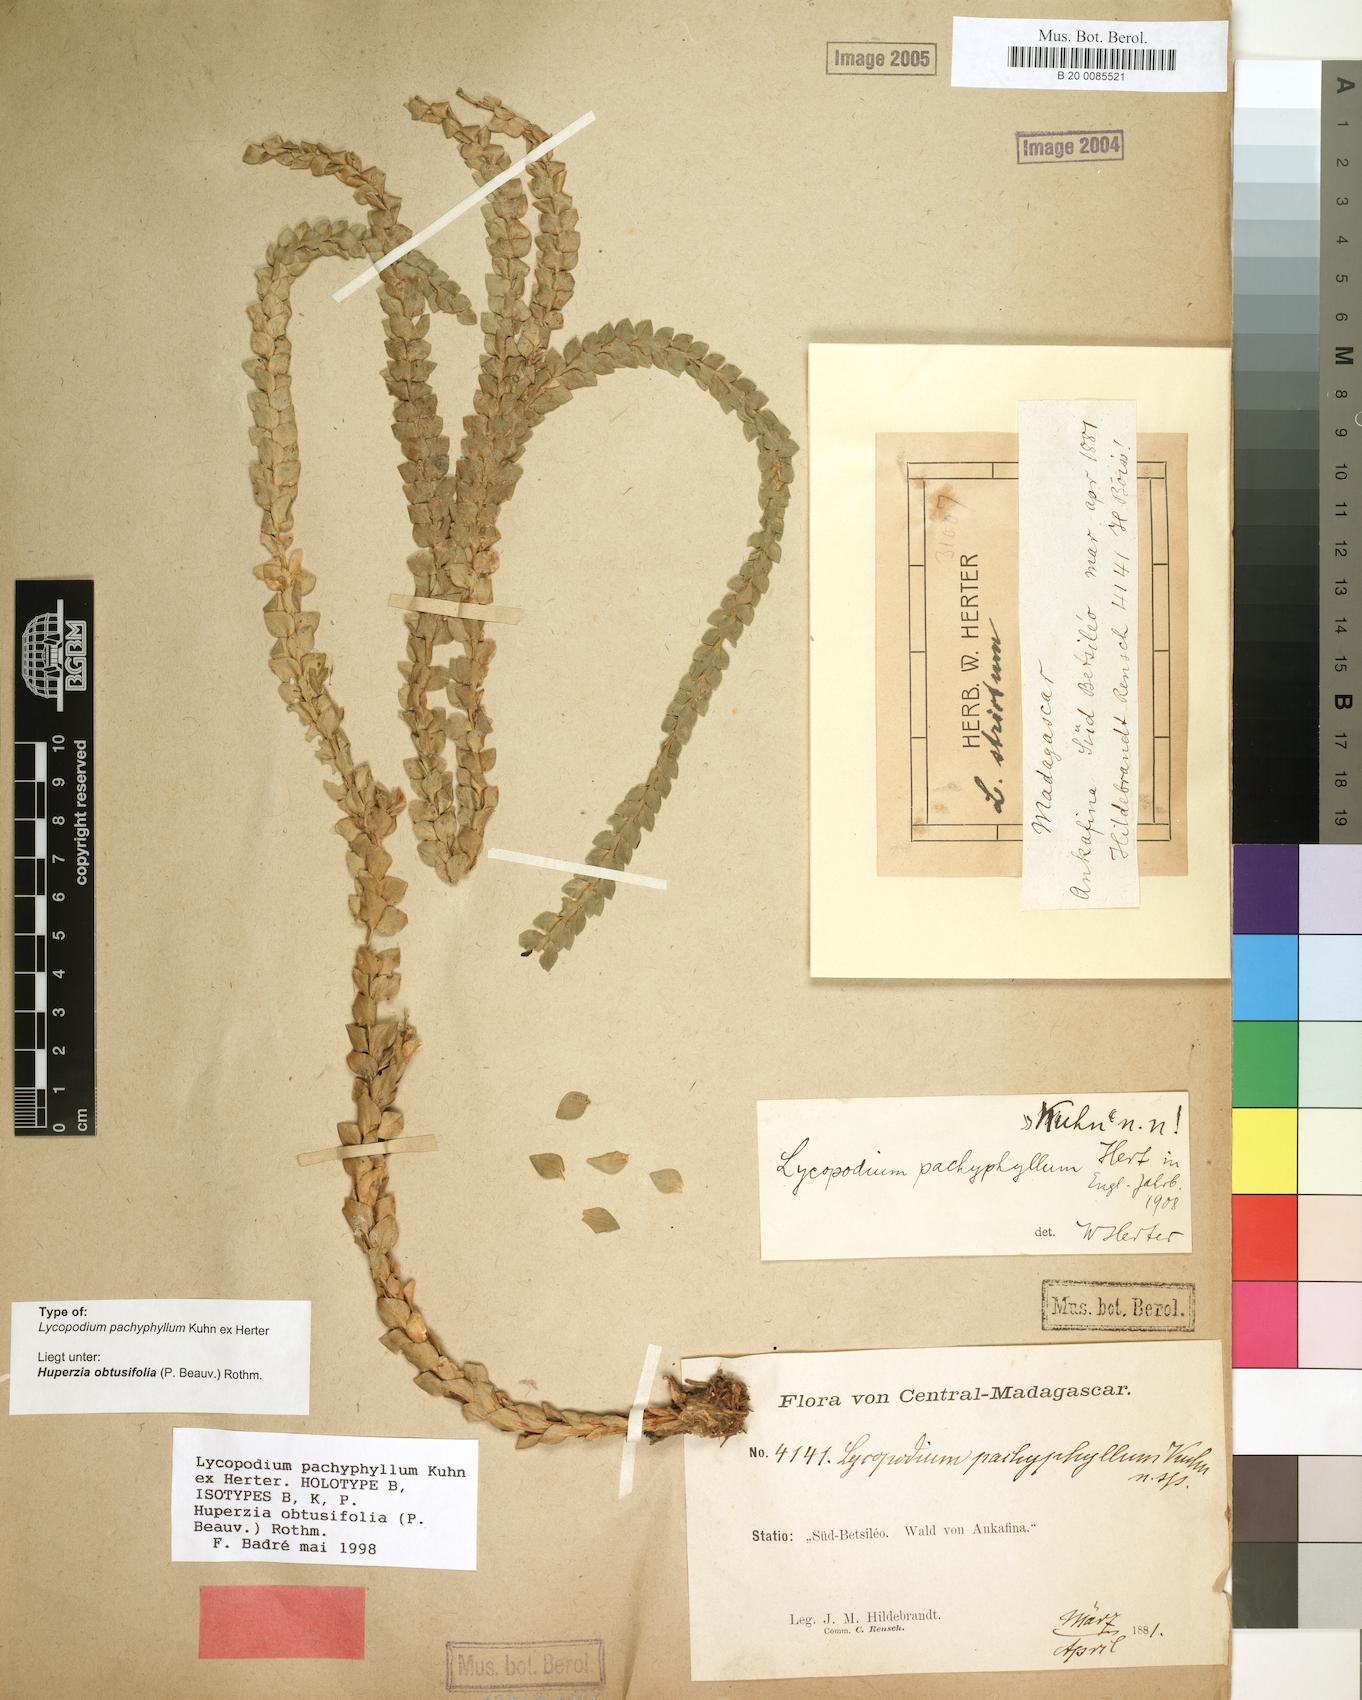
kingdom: Plantae
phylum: Tracheophyta
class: Lycopodiopsida
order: Lycopodiales
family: Lycopodiaceae
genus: Phlegmariurus
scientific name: Phlegmariurus pachyphyllus
